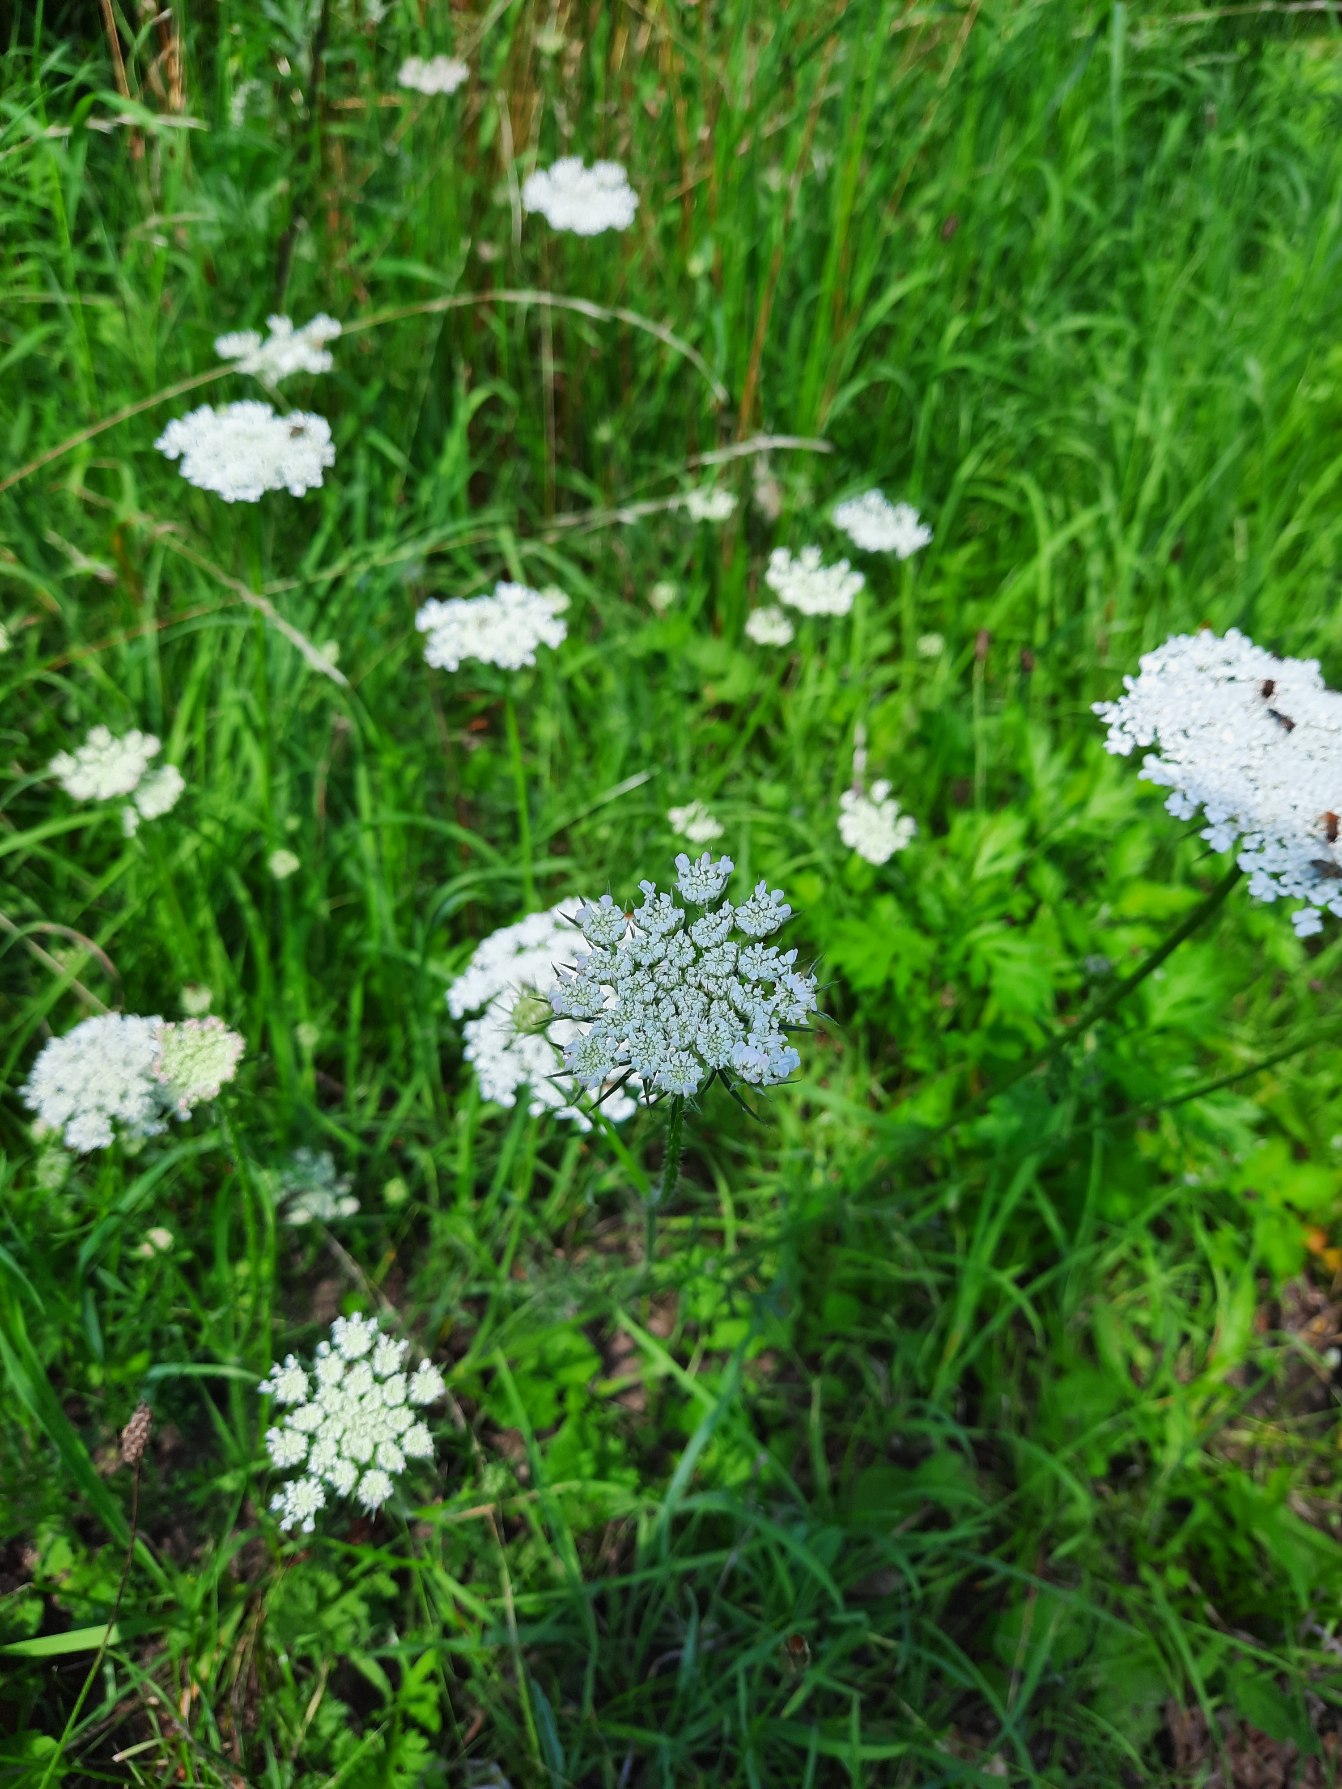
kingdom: Plantae
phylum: Tracheophyta
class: Magnoliopsida
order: Apiales
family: Apiaceae
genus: Daucus
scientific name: Daucus carota
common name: Gulerod
